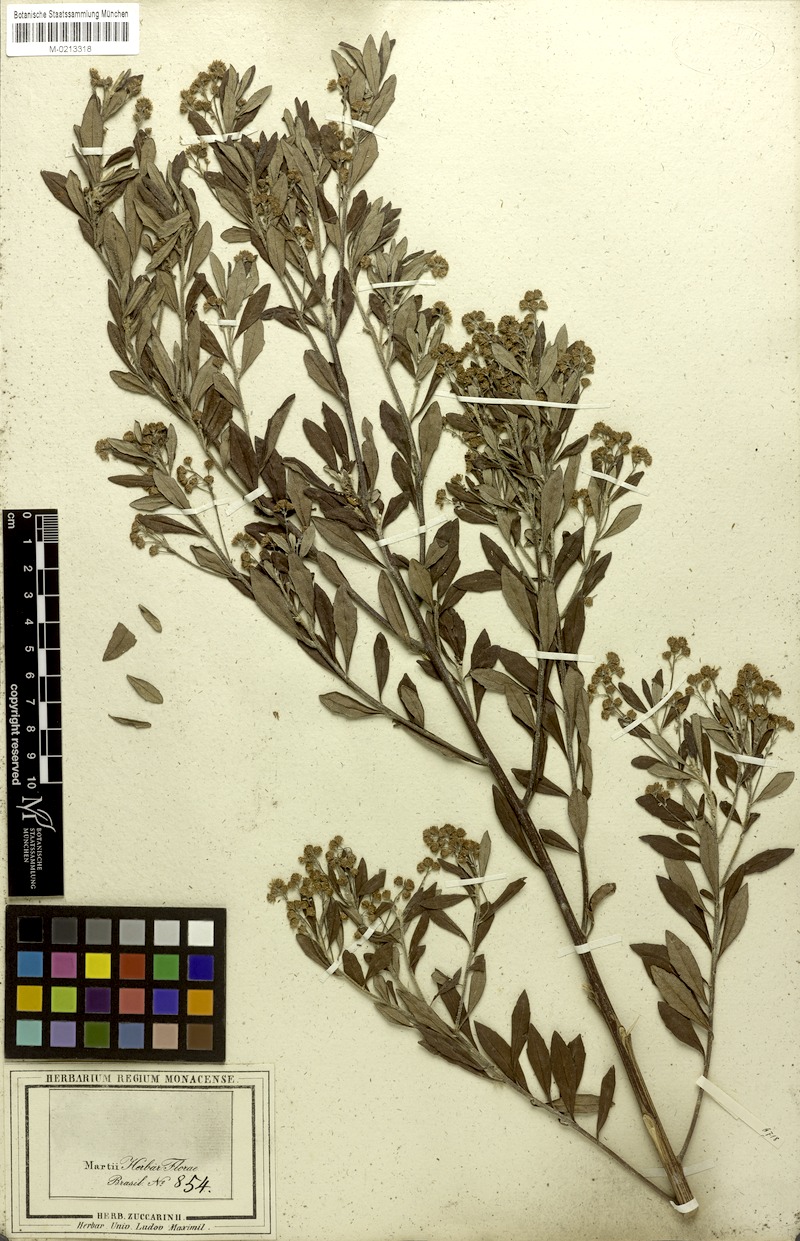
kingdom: Plantae
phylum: Tracheophyta
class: Magnoliopsida
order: Asterales
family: Asteraceae
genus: Baccharis
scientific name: Baccharis calvescens
